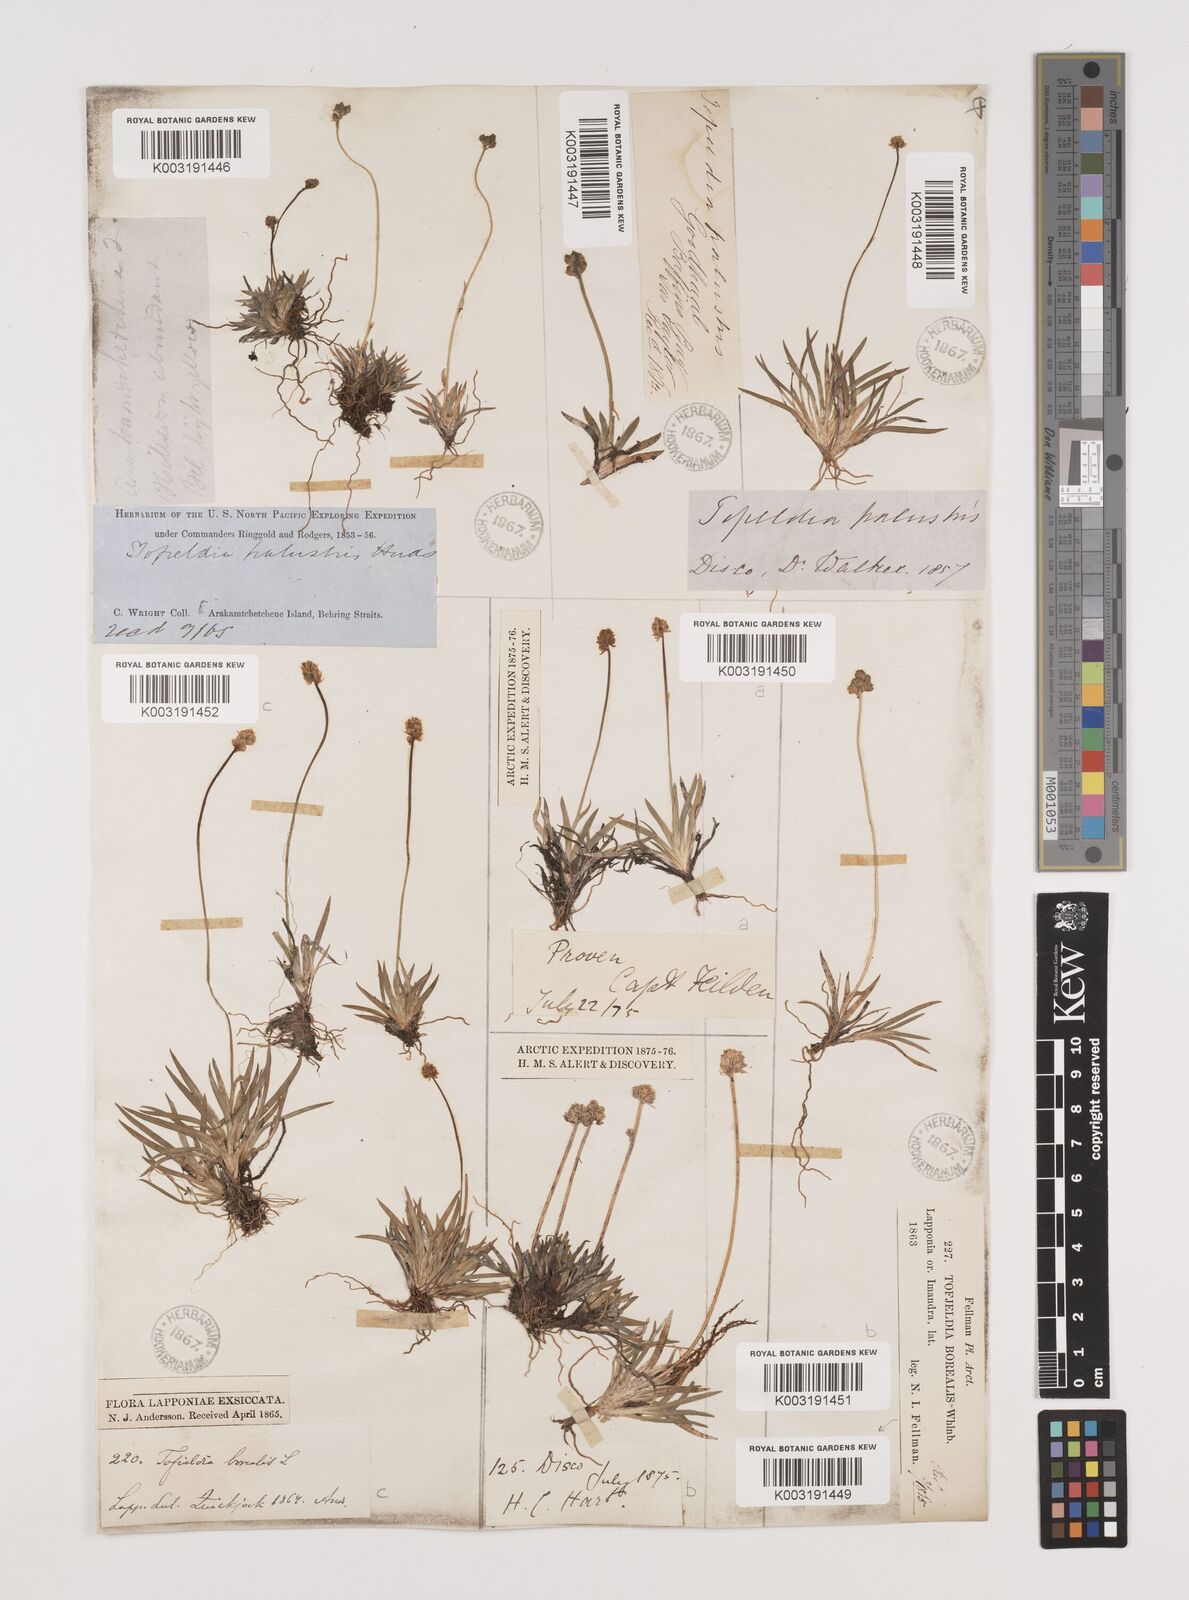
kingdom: Plantae
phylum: Tracheophyta
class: Liliopsida
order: Alismatales
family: Tofieldiaceae
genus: Tofieldia
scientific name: Tofieldia calyculata
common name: German-asphodel
